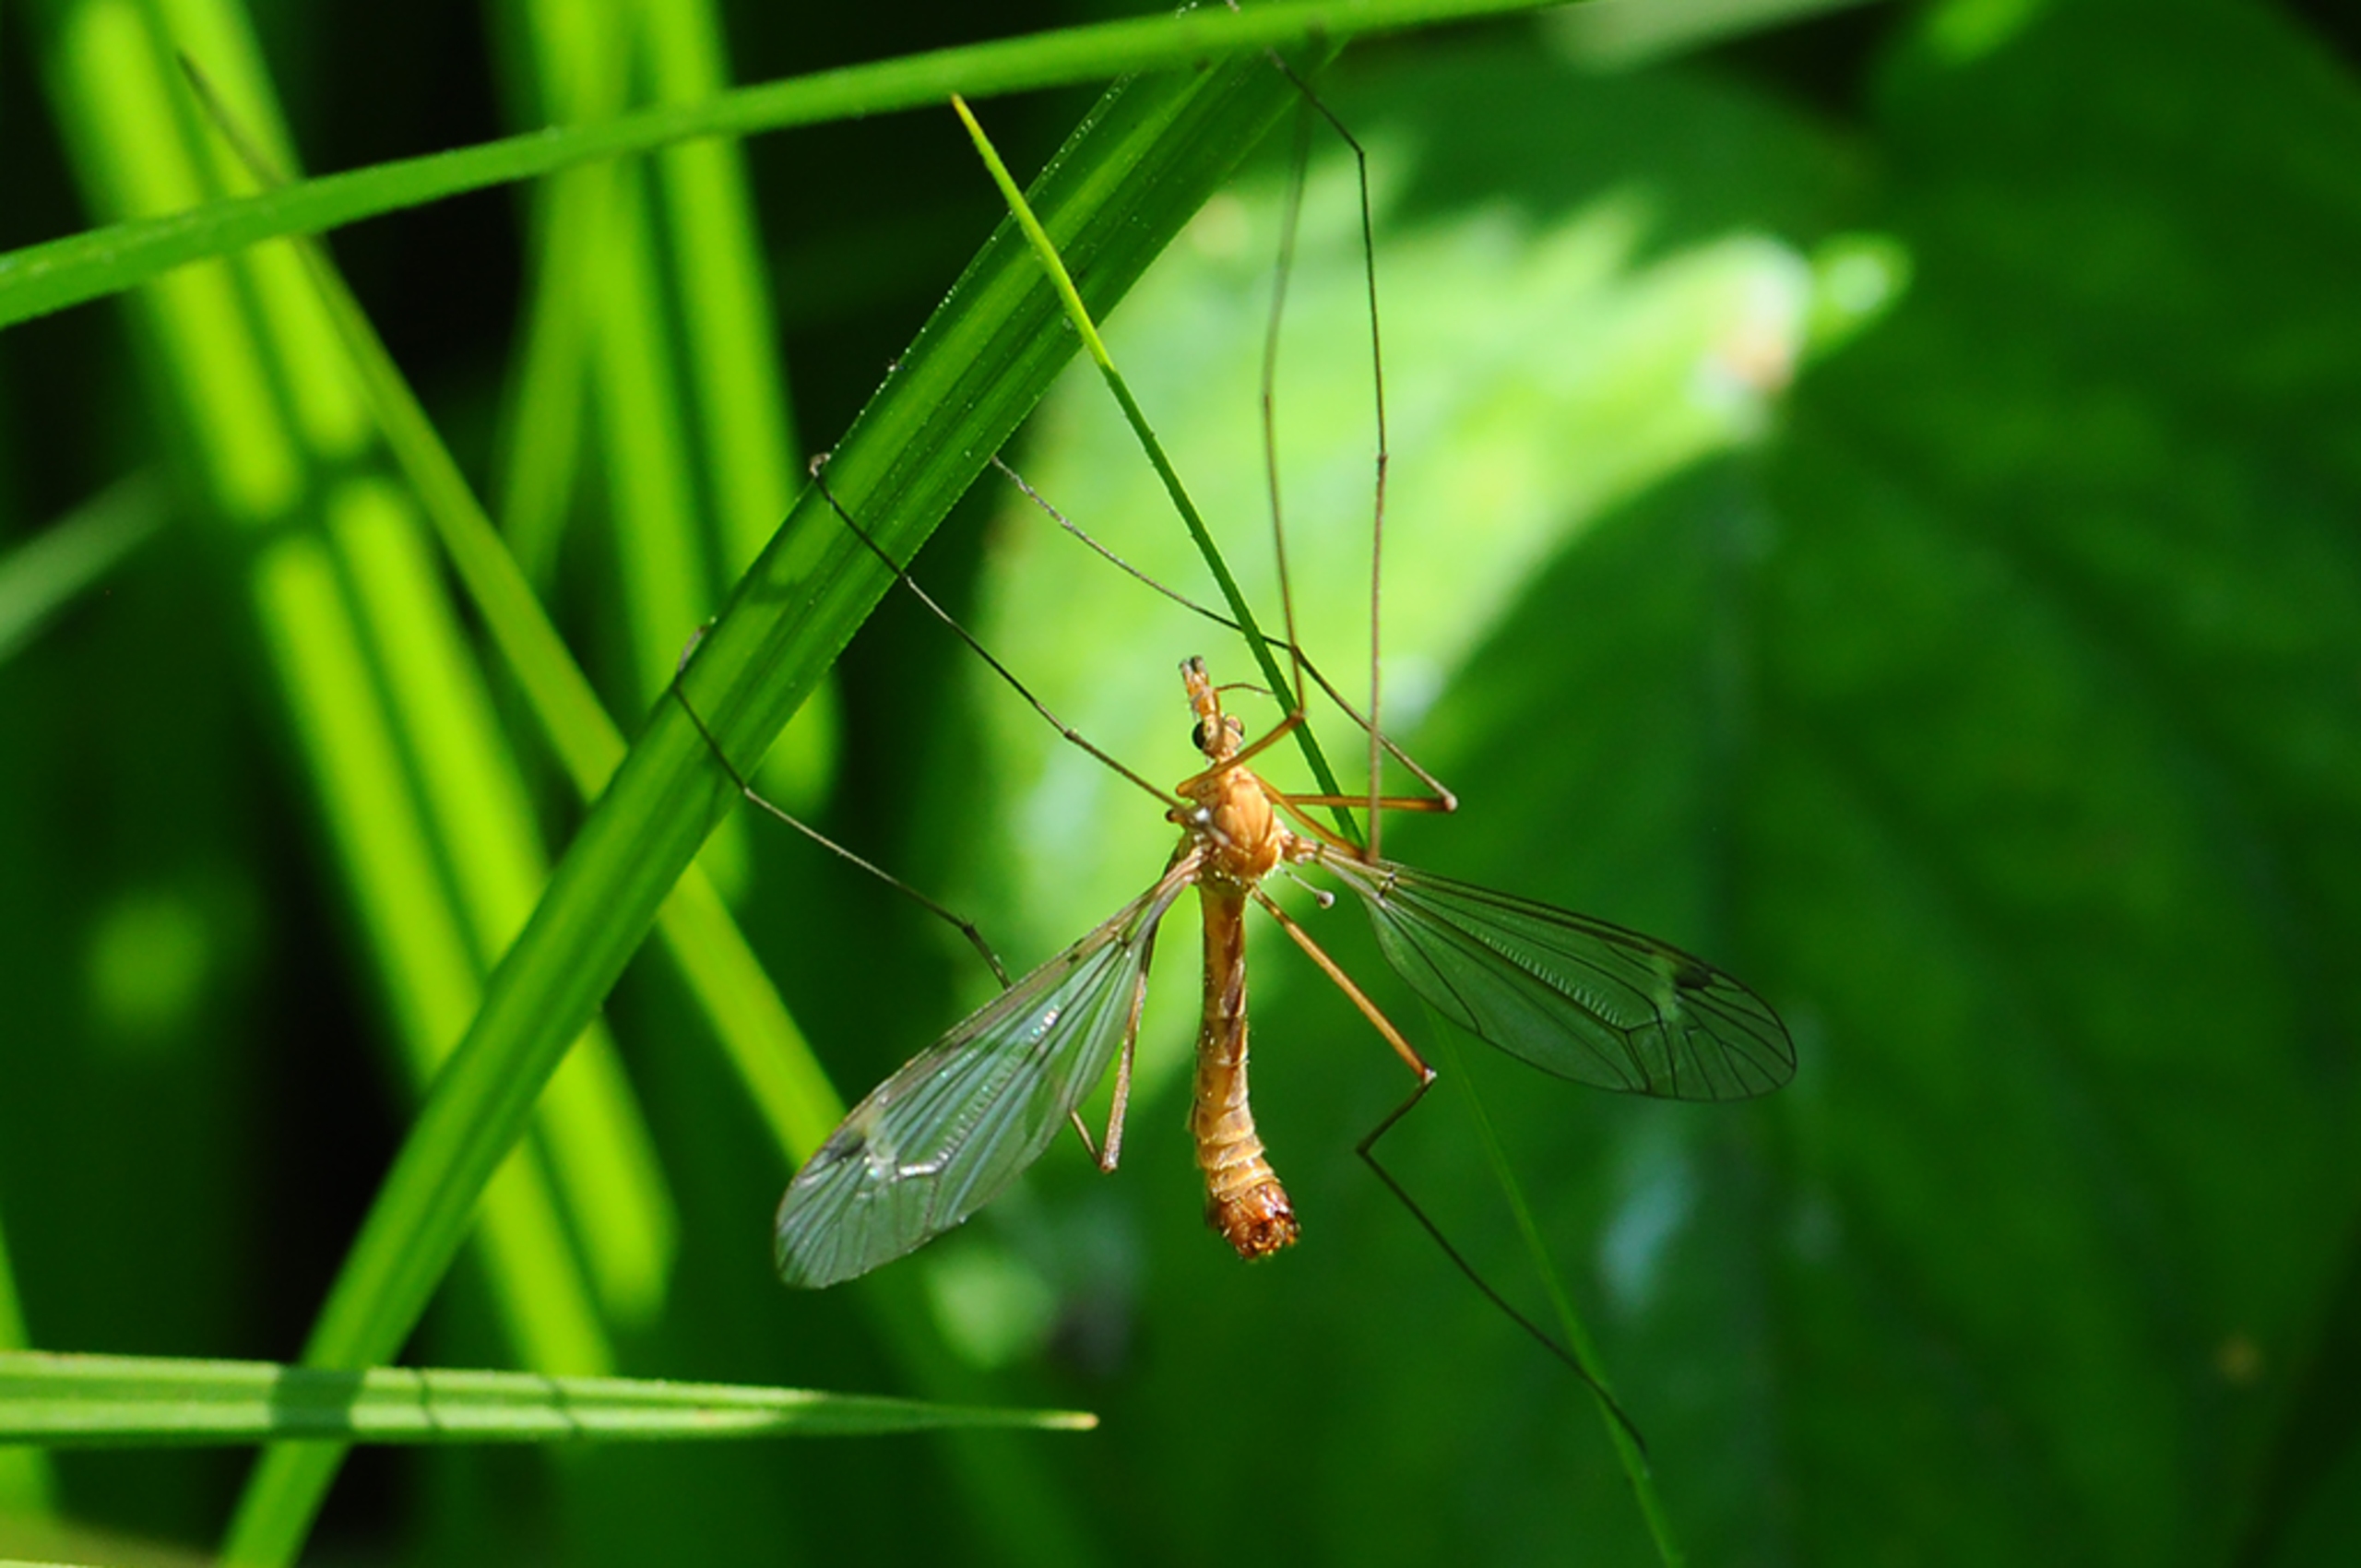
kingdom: Animalia
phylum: Arthropoda
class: Insecta
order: Diptera
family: Tipulidae
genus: Tipula
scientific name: Tipula lunata
